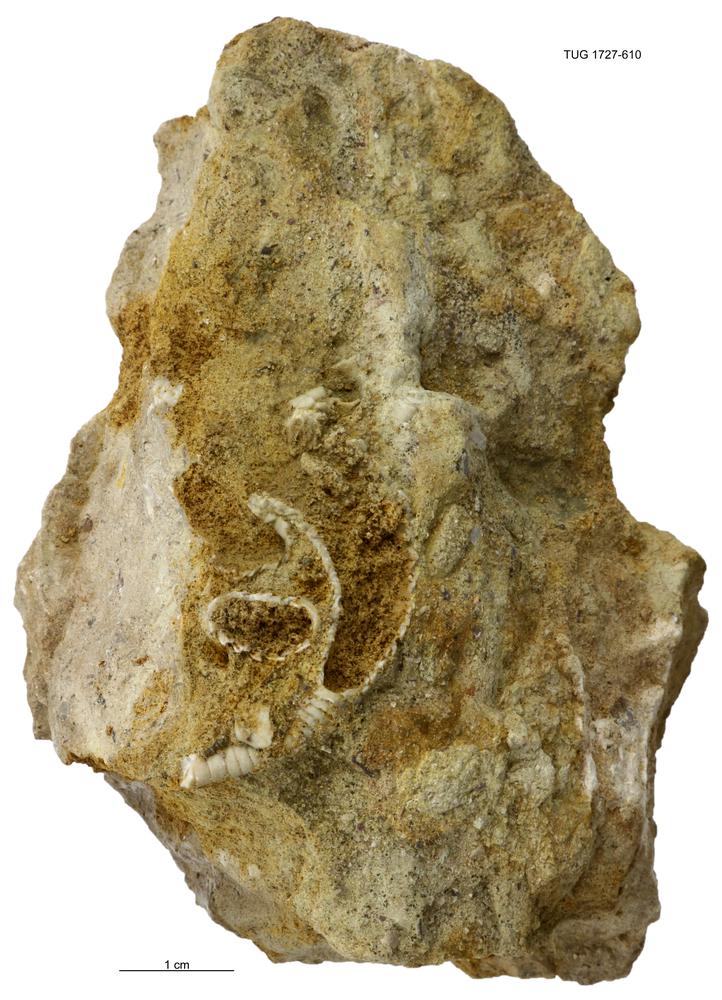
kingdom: Animalia
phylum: Echinodermata
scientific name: Echinodermata
